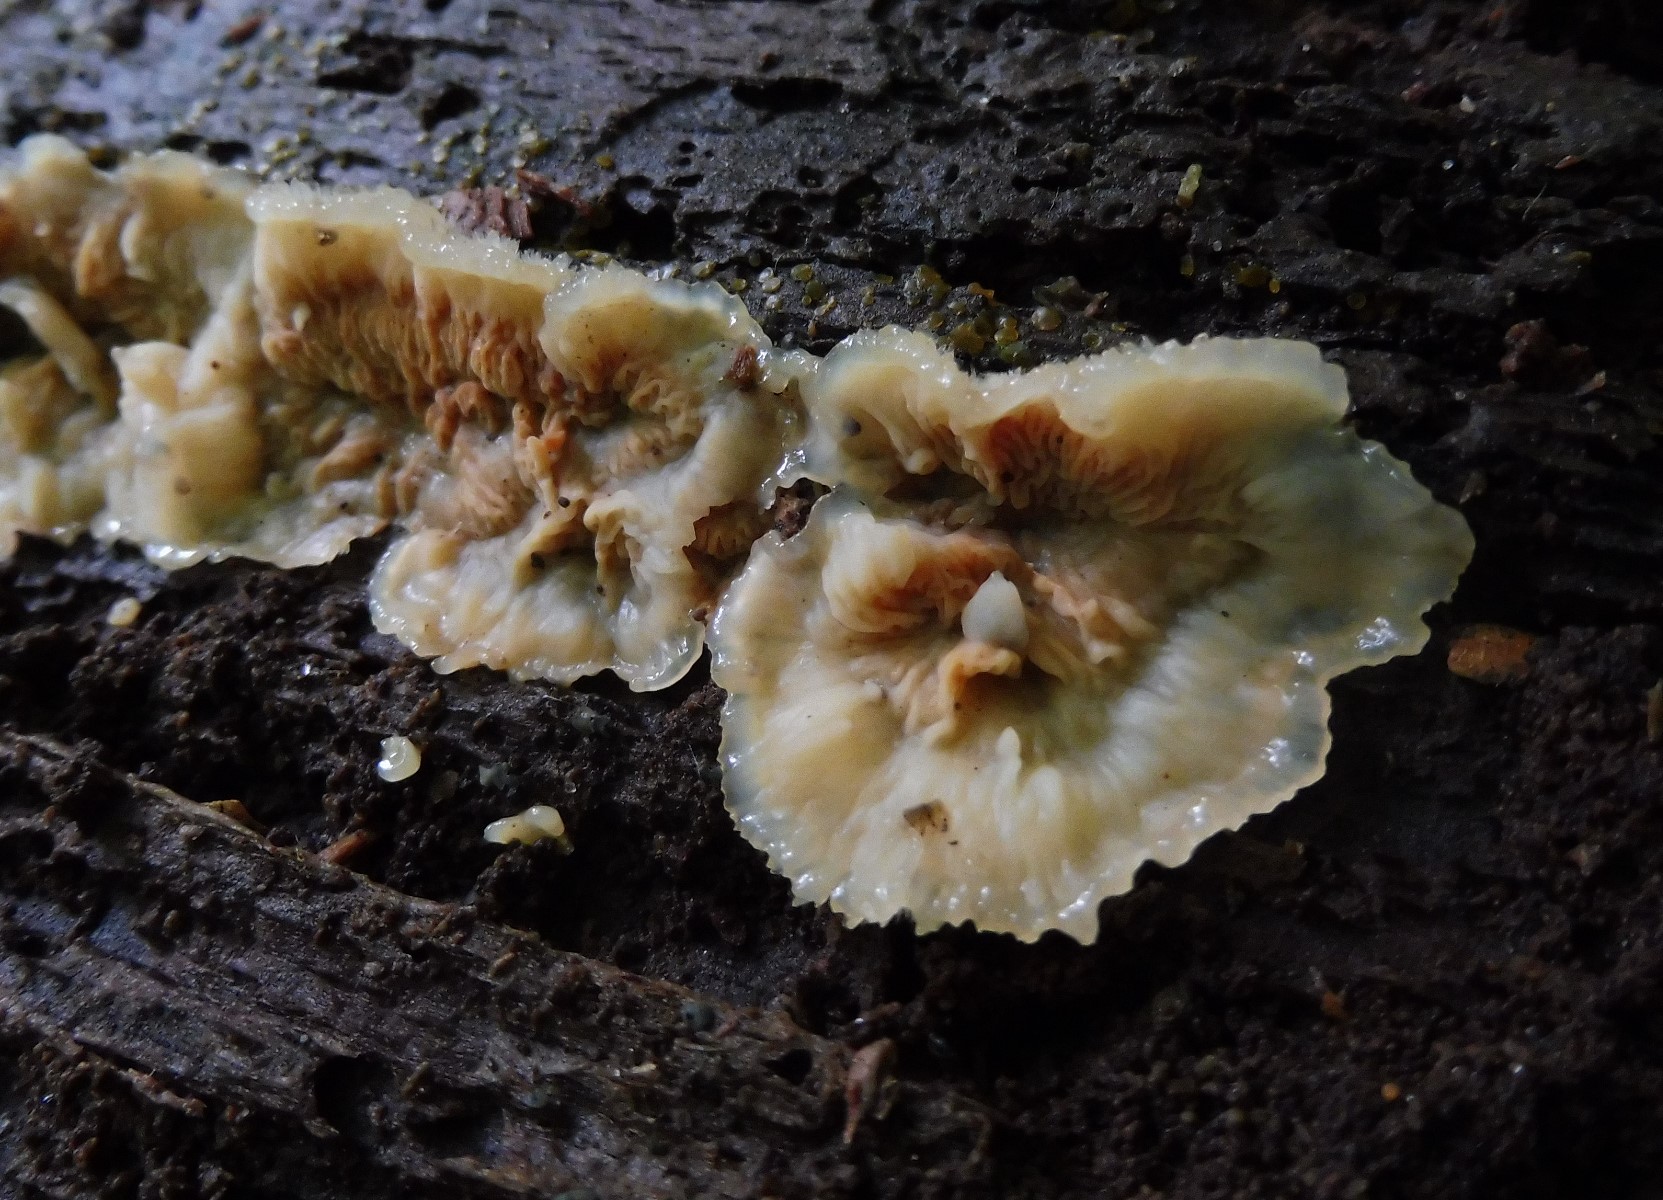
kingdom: Fungi
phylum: Basidiomycota
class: Agaricomycetes
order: Polyporales
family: Meruliaceae
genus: Phlebia
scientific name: Phlebia tremellosa
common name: bævrende åresvamp
